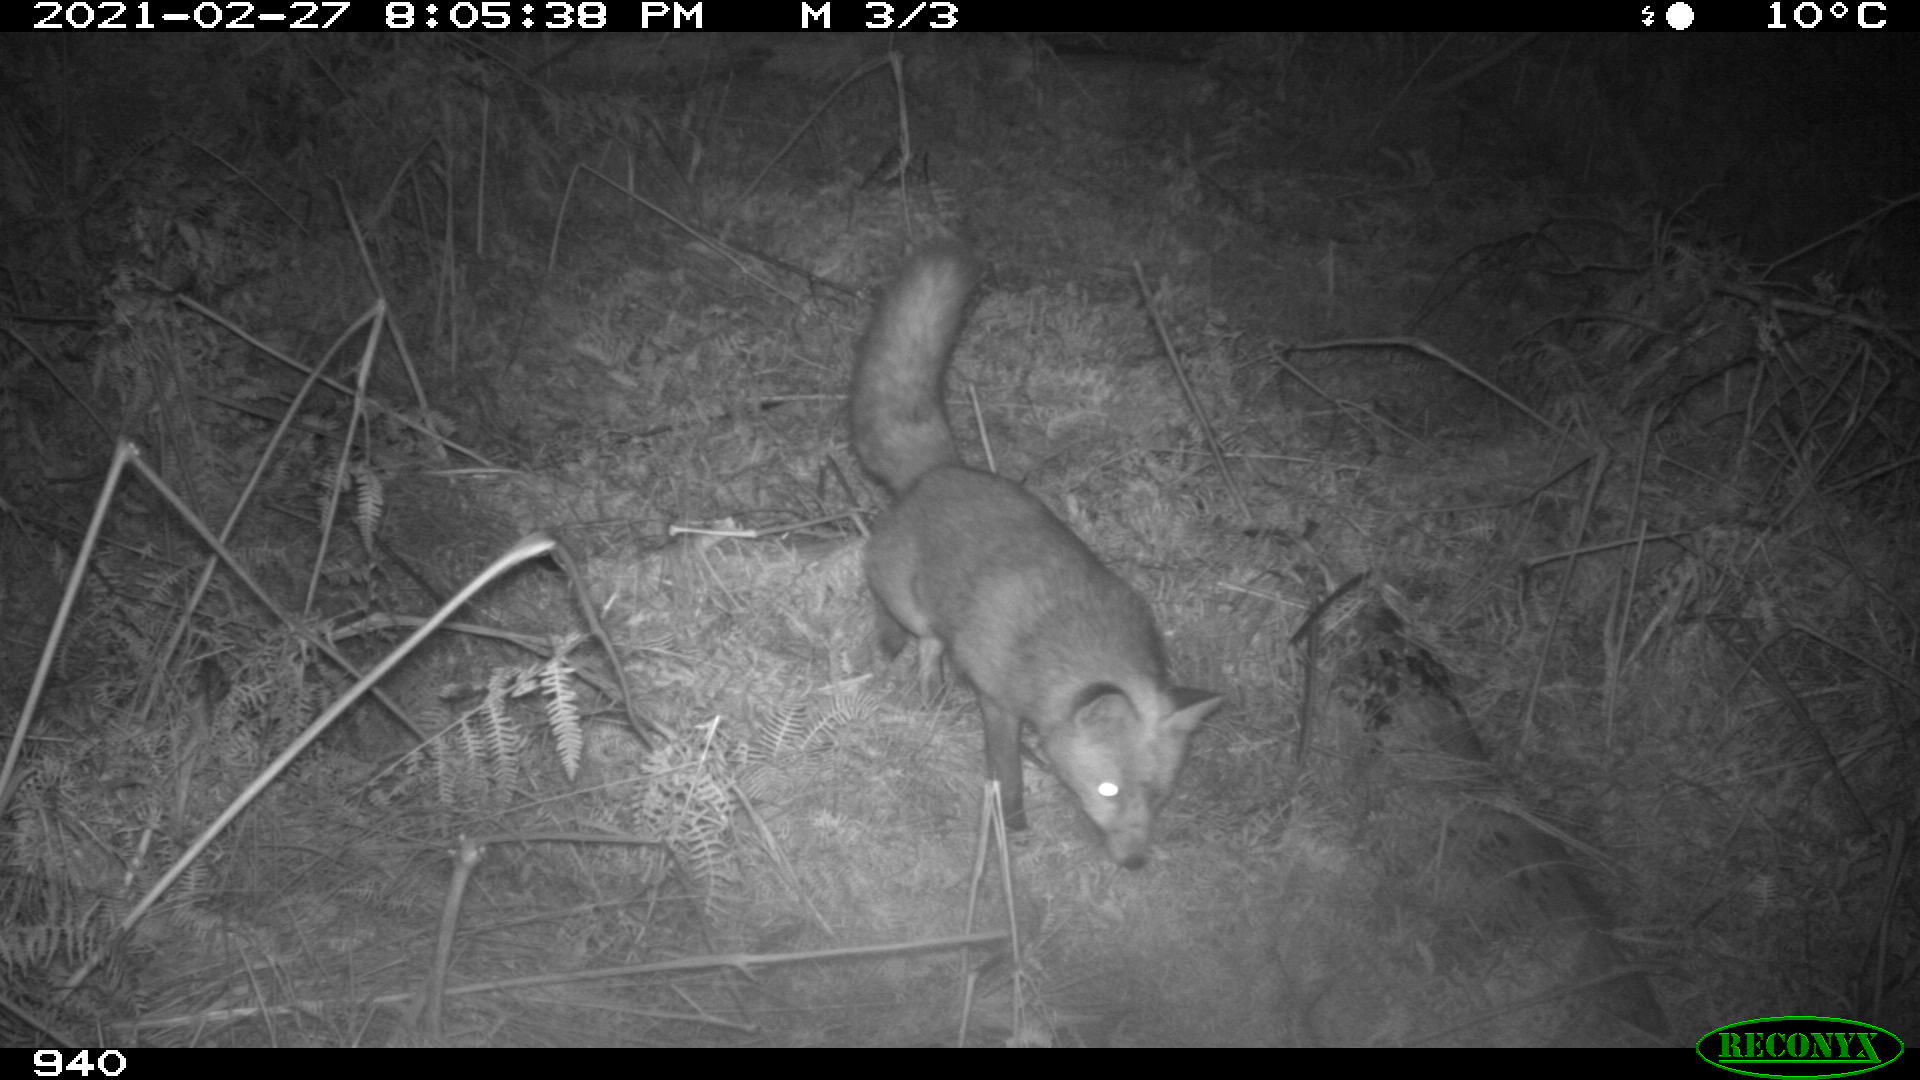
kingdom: Animalia
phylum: Chordata
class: Mammalia
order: Carnivora
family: Canidae
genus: Vulpes
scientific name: Vulpes vulpes
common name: Red fox
